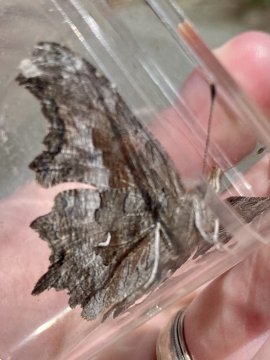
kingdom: Animalia
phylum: Arthropoda
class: Insecta
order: Lepidoptera
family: Nymphalidae
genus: Polygonia
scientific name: Polygonia satyrus
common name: Satyr Comma
